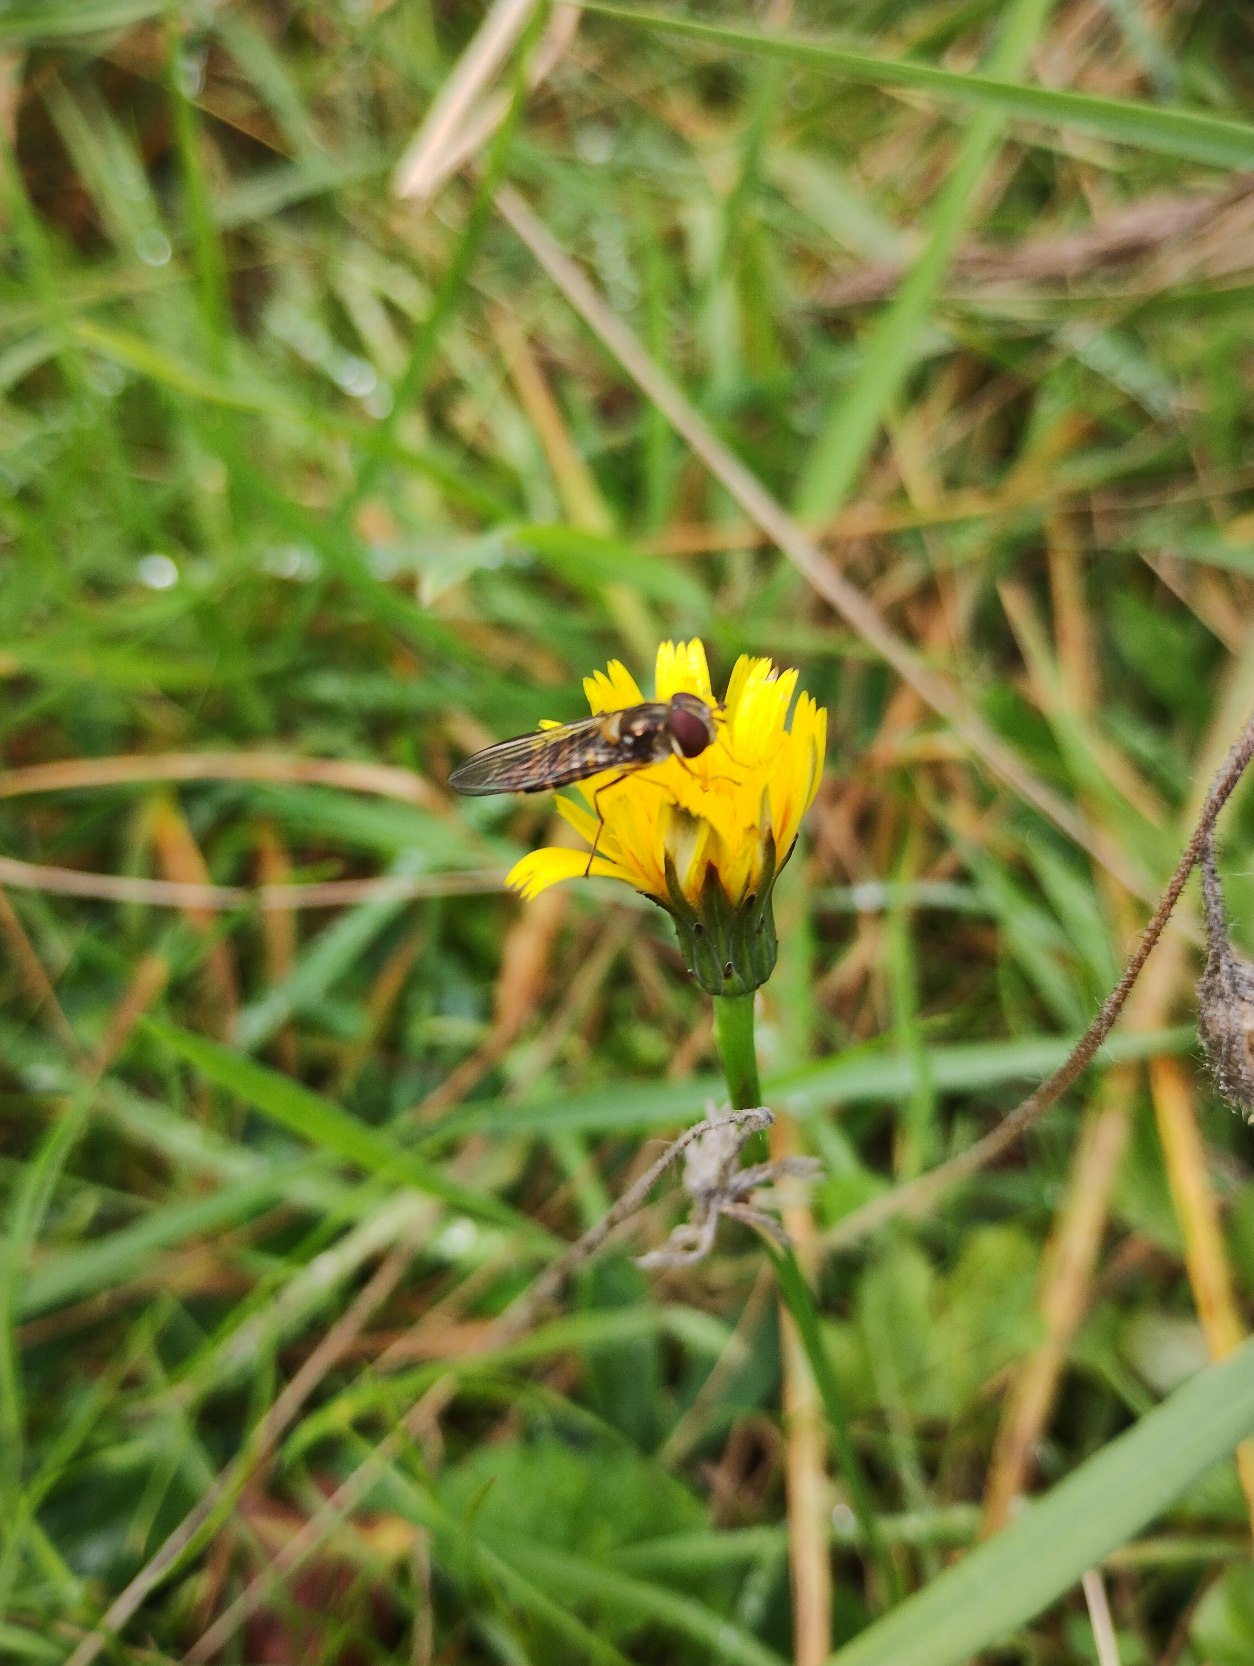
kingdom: Animalia
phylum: Arthropoda
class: Insecta
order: Diptera
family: Syrphidae
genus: Episyrphus
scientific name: Episyrphus balteatus
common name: Dobbeltbåndet svirreflue
